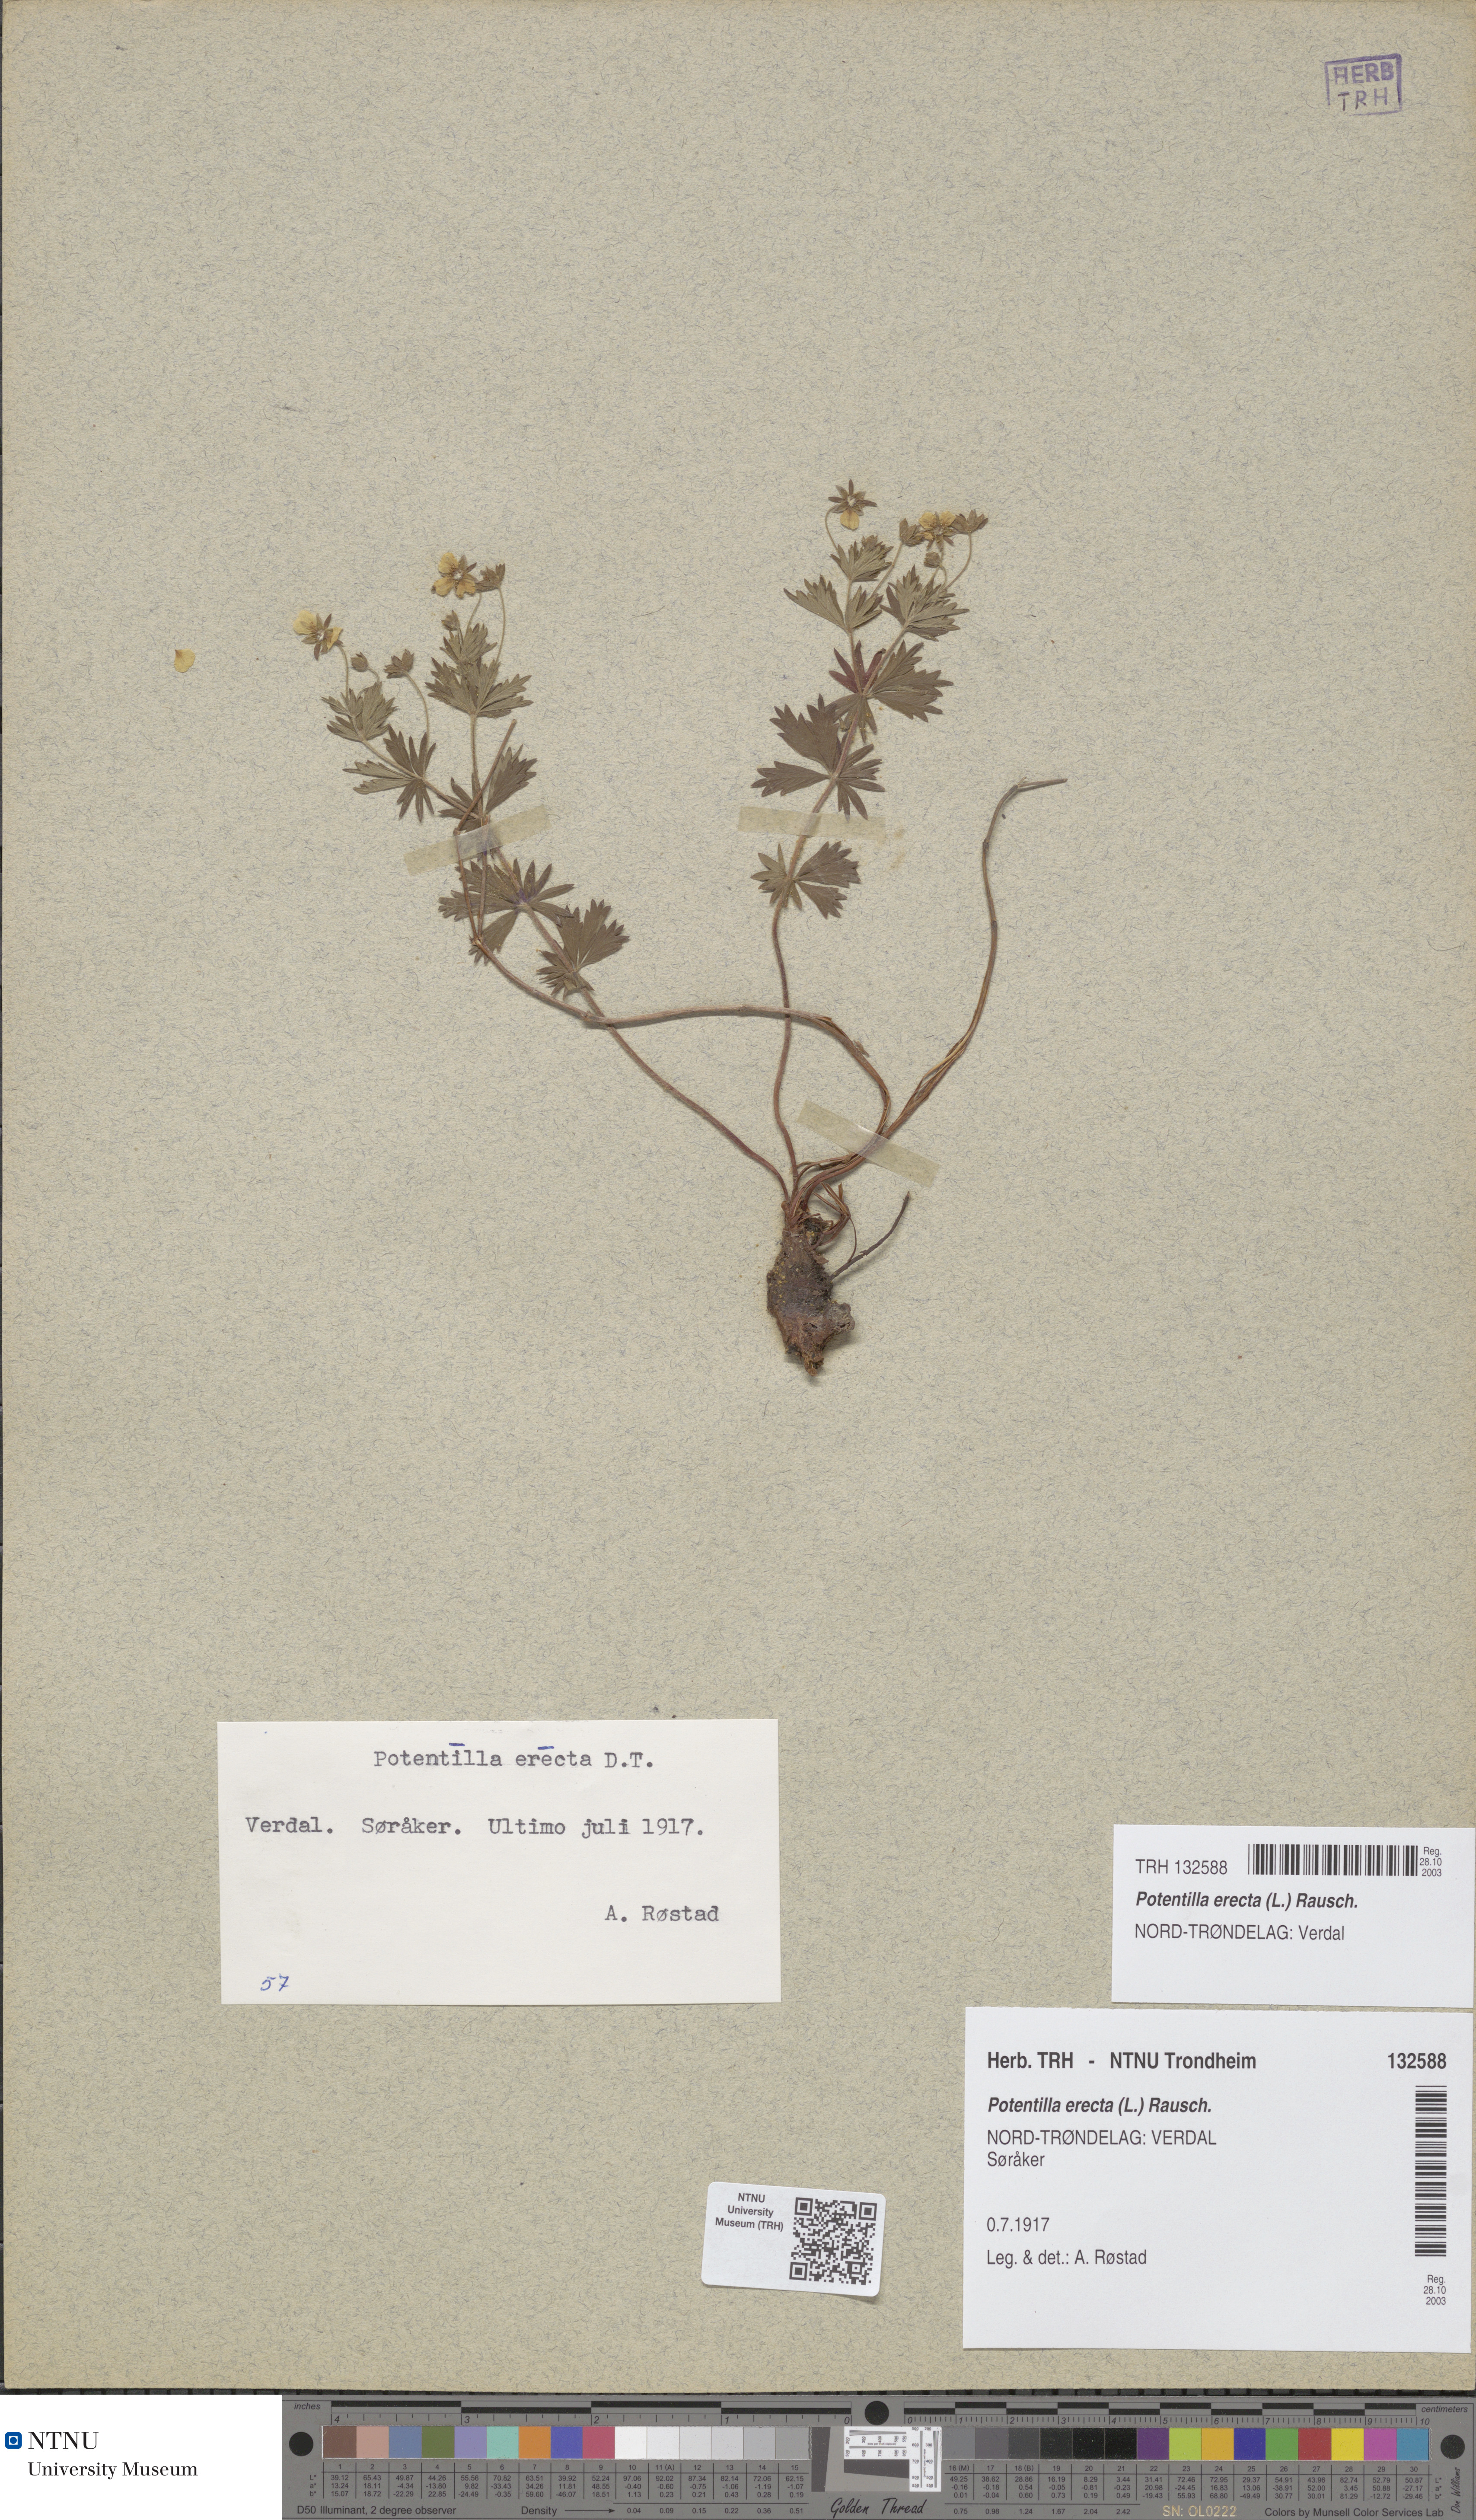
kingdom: Plantae
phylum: Tracheophyta
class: Magnoliopsida
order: Rosales
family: Rosaceae
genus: Potentilla
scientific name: Potentilla erecta
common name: Tormentil
